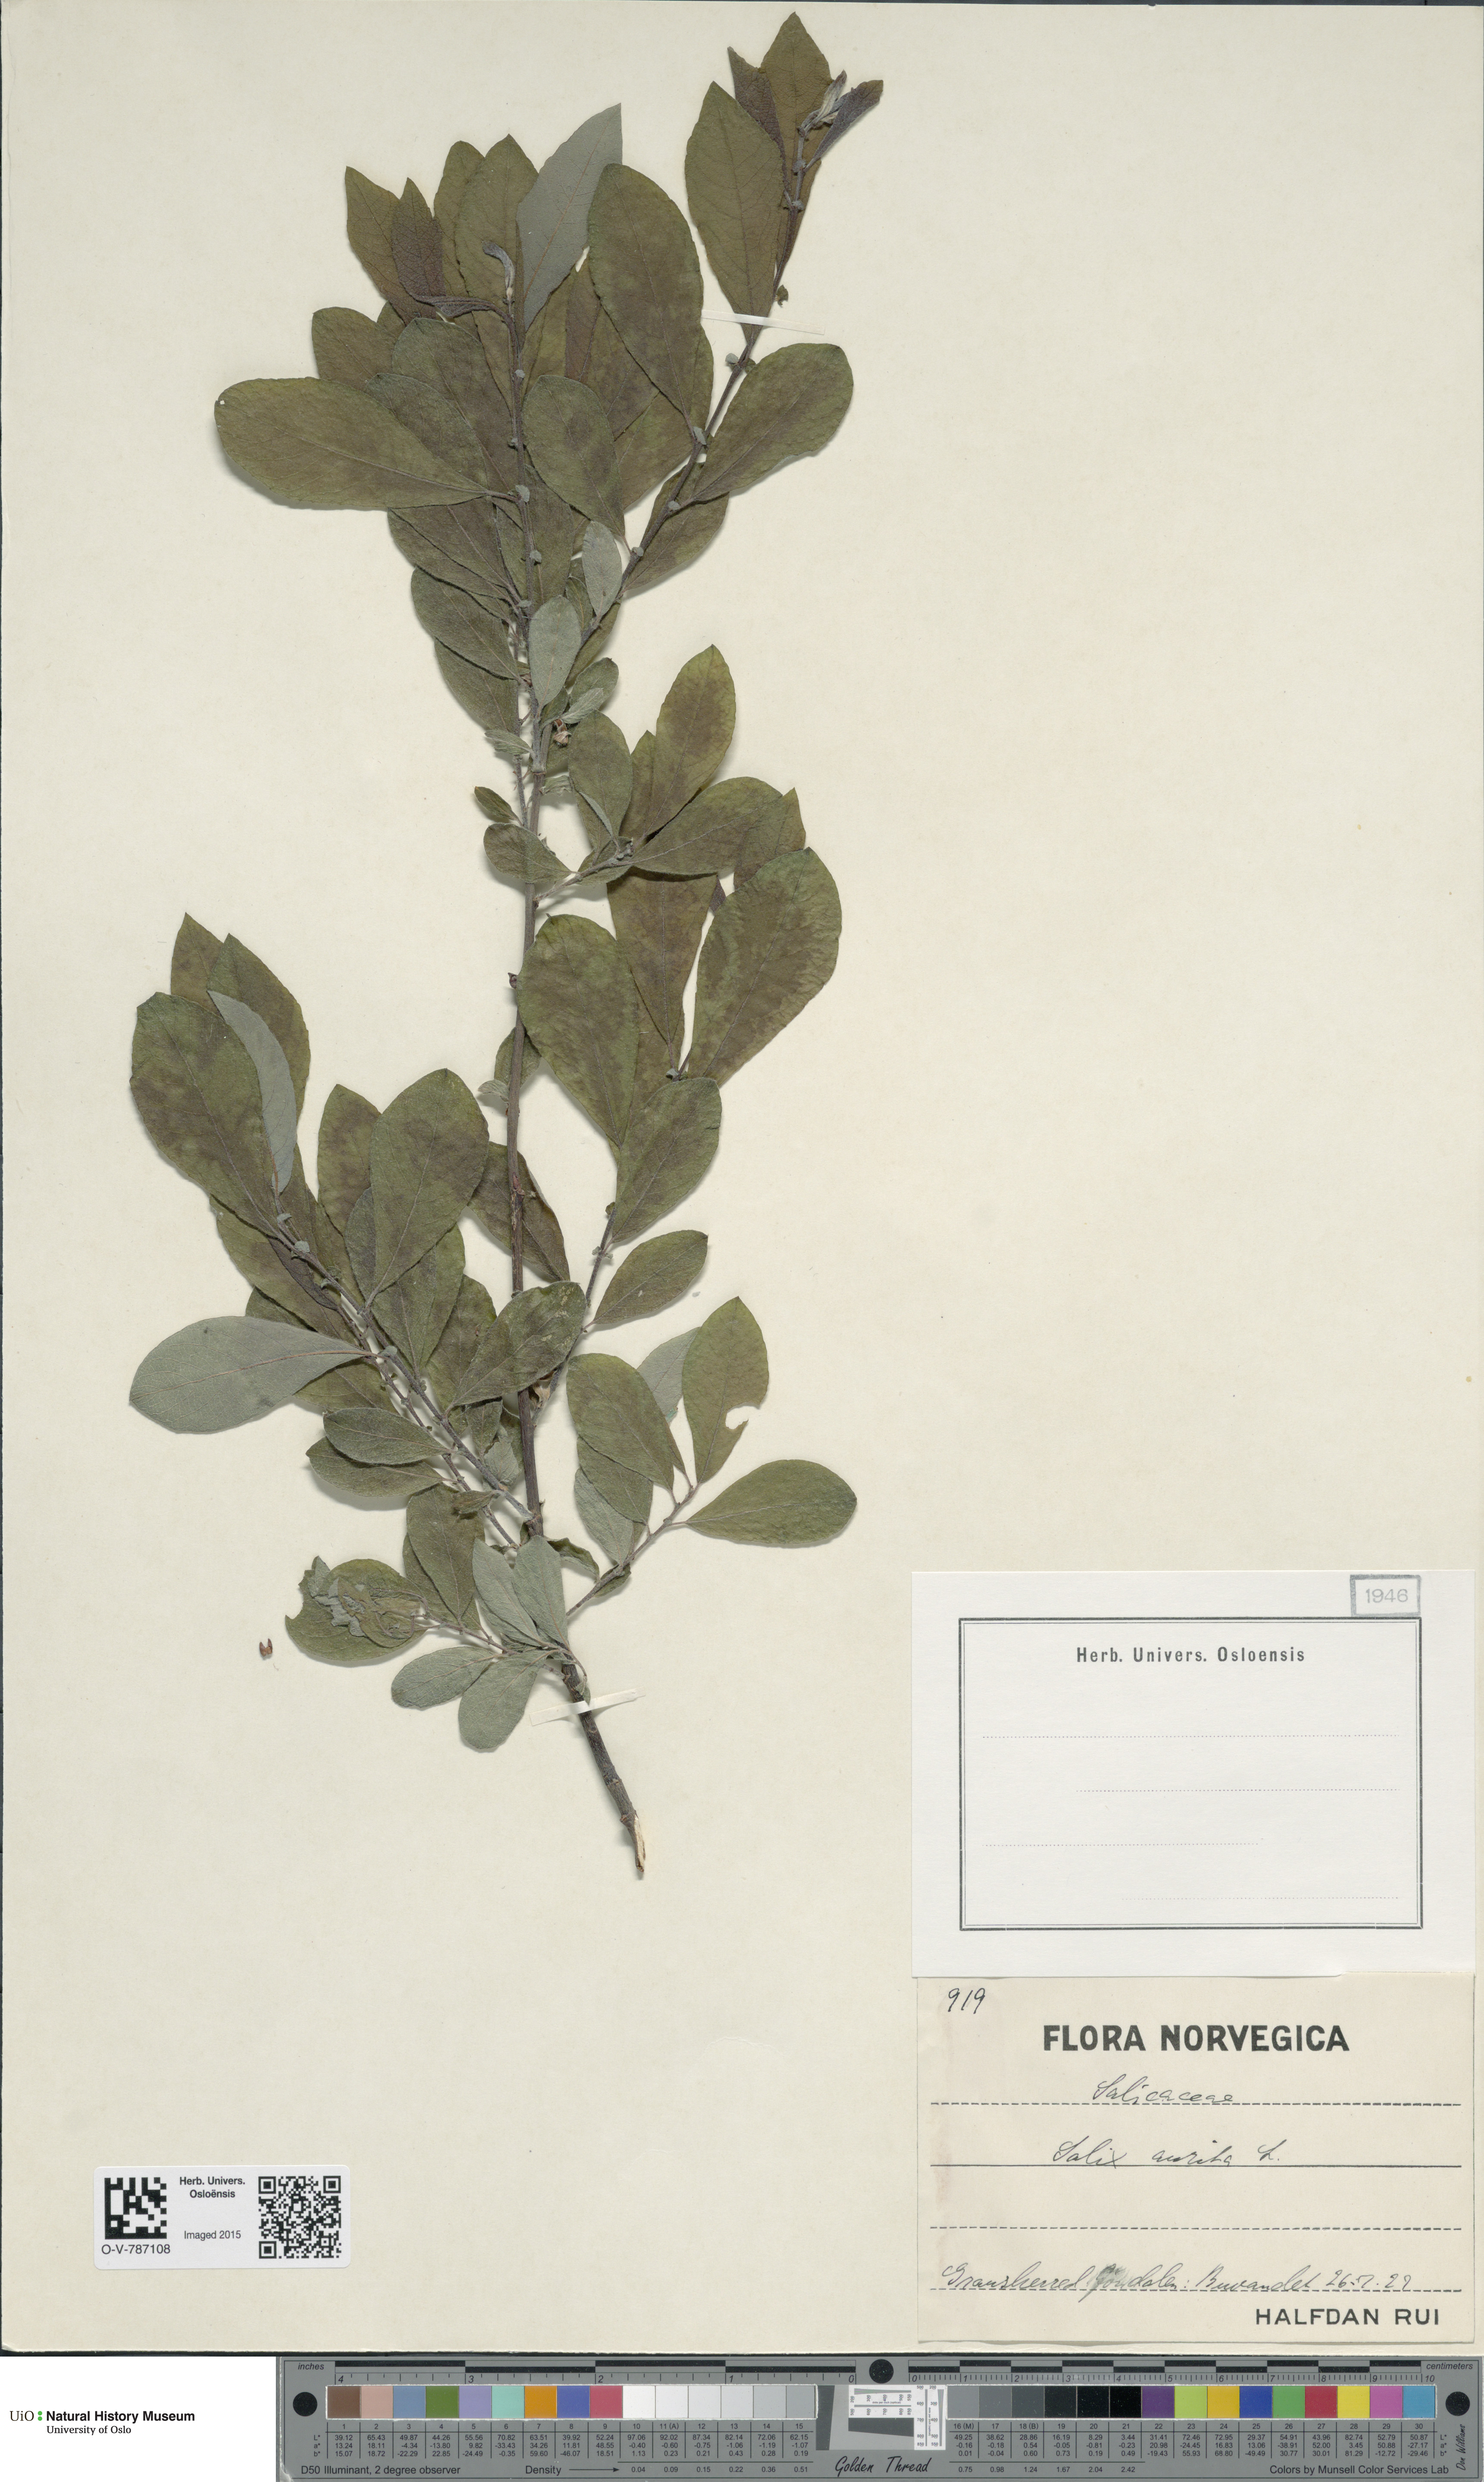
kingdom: Plantae
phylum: Tracheophyta
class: Magnoliopsida
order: Malpighiales
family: Salicaceae
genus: Salix
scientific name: Salix aurita
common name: Eared willow
